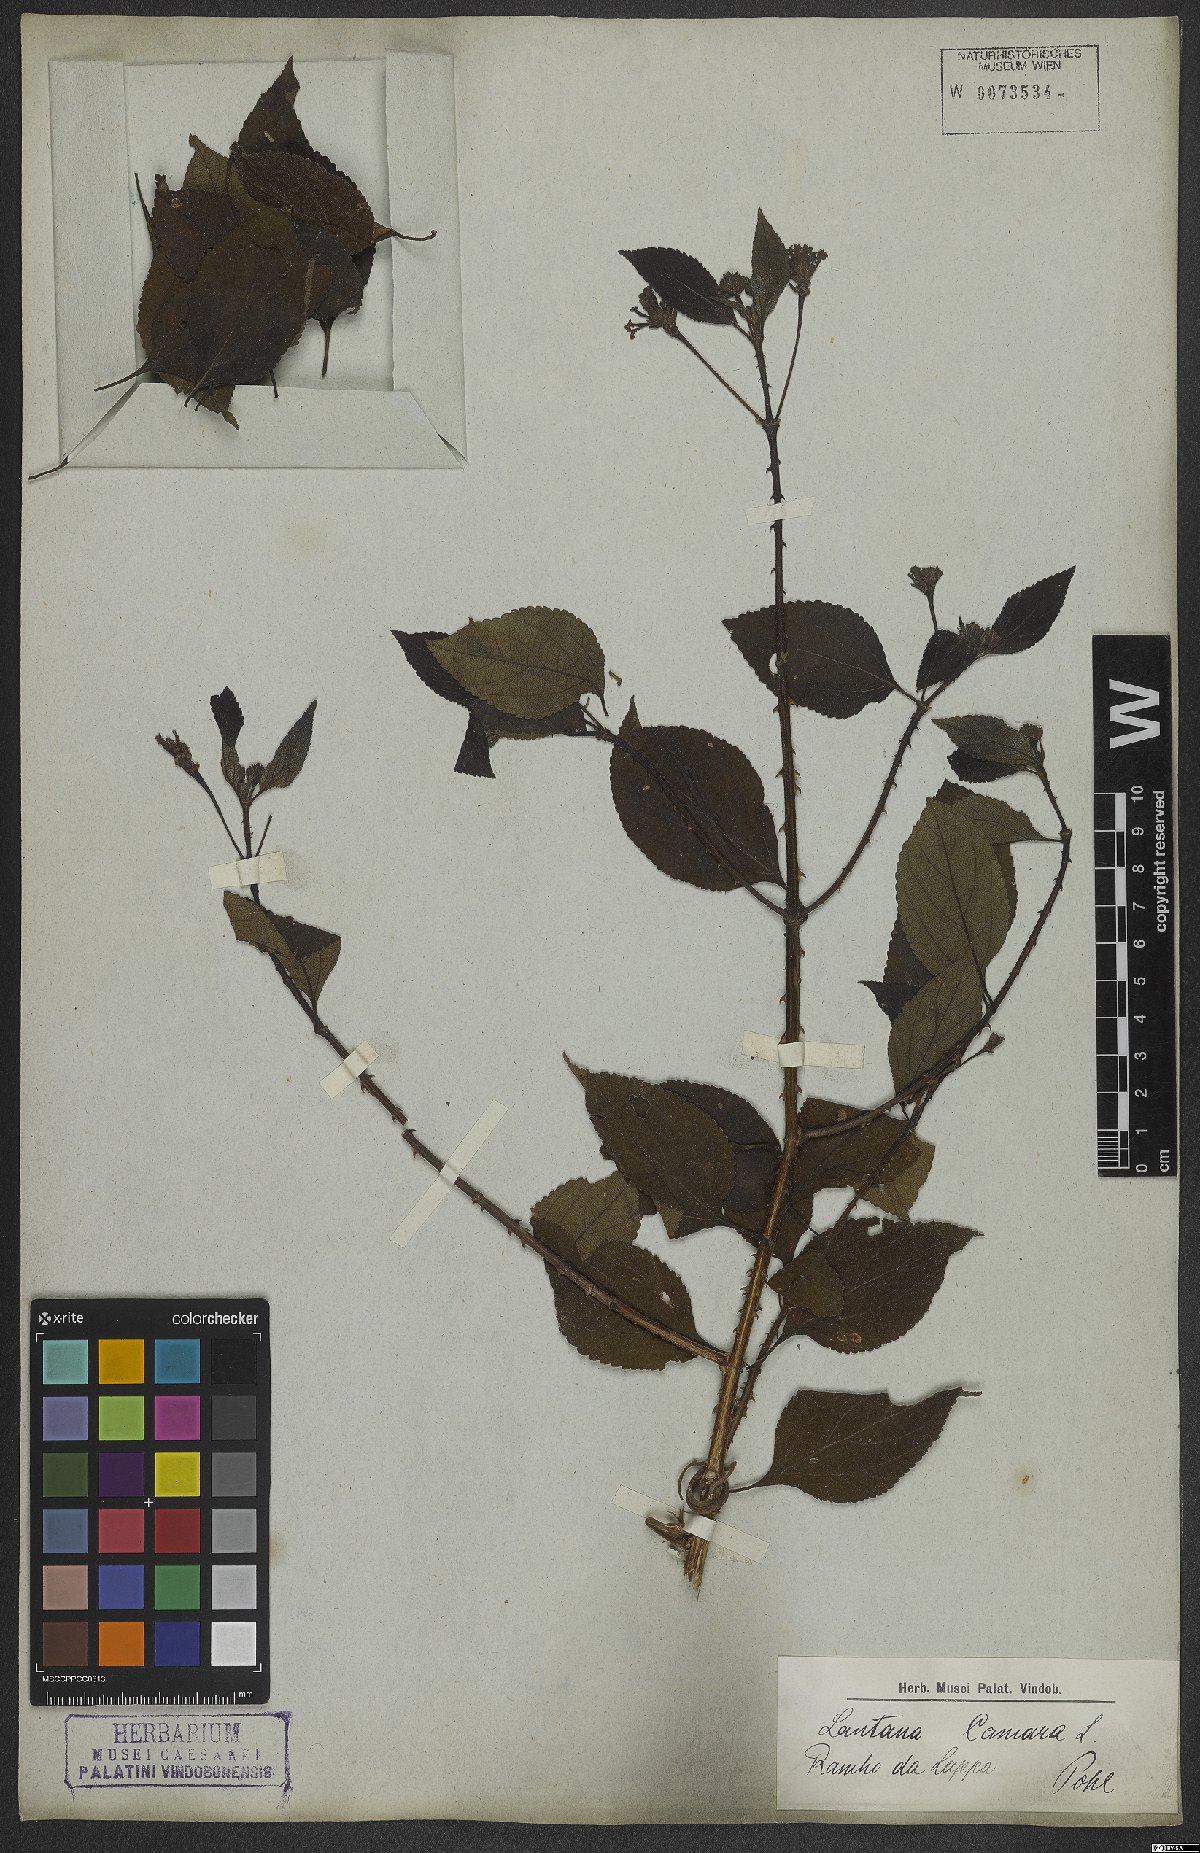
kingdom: Plantae
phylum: Tracheophyta
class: Magnoliopsida
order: Lamiales
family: Verbenaceae
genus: Lantana
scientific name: Lantana camara
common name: Lantana
